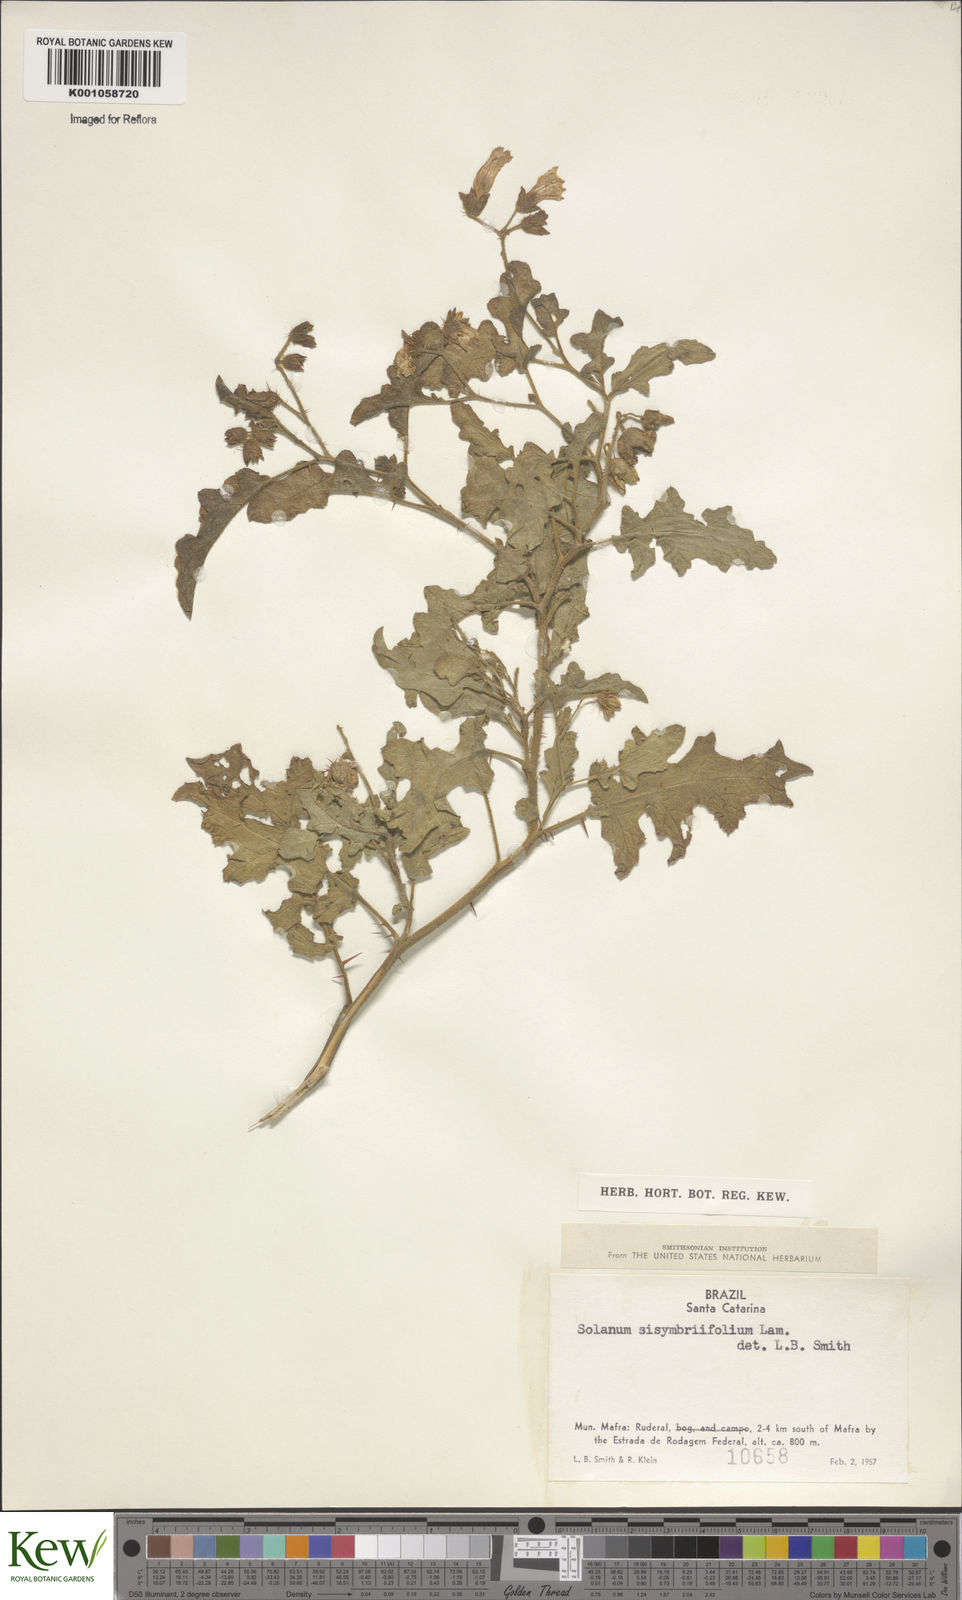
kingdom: Plantae
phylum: Tracheophyta
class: Magnoliopsida
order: Solanales
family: Solanaceae
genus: Solanum
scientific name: Solanum sisymbriifolium
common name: Red buffalo-bur
